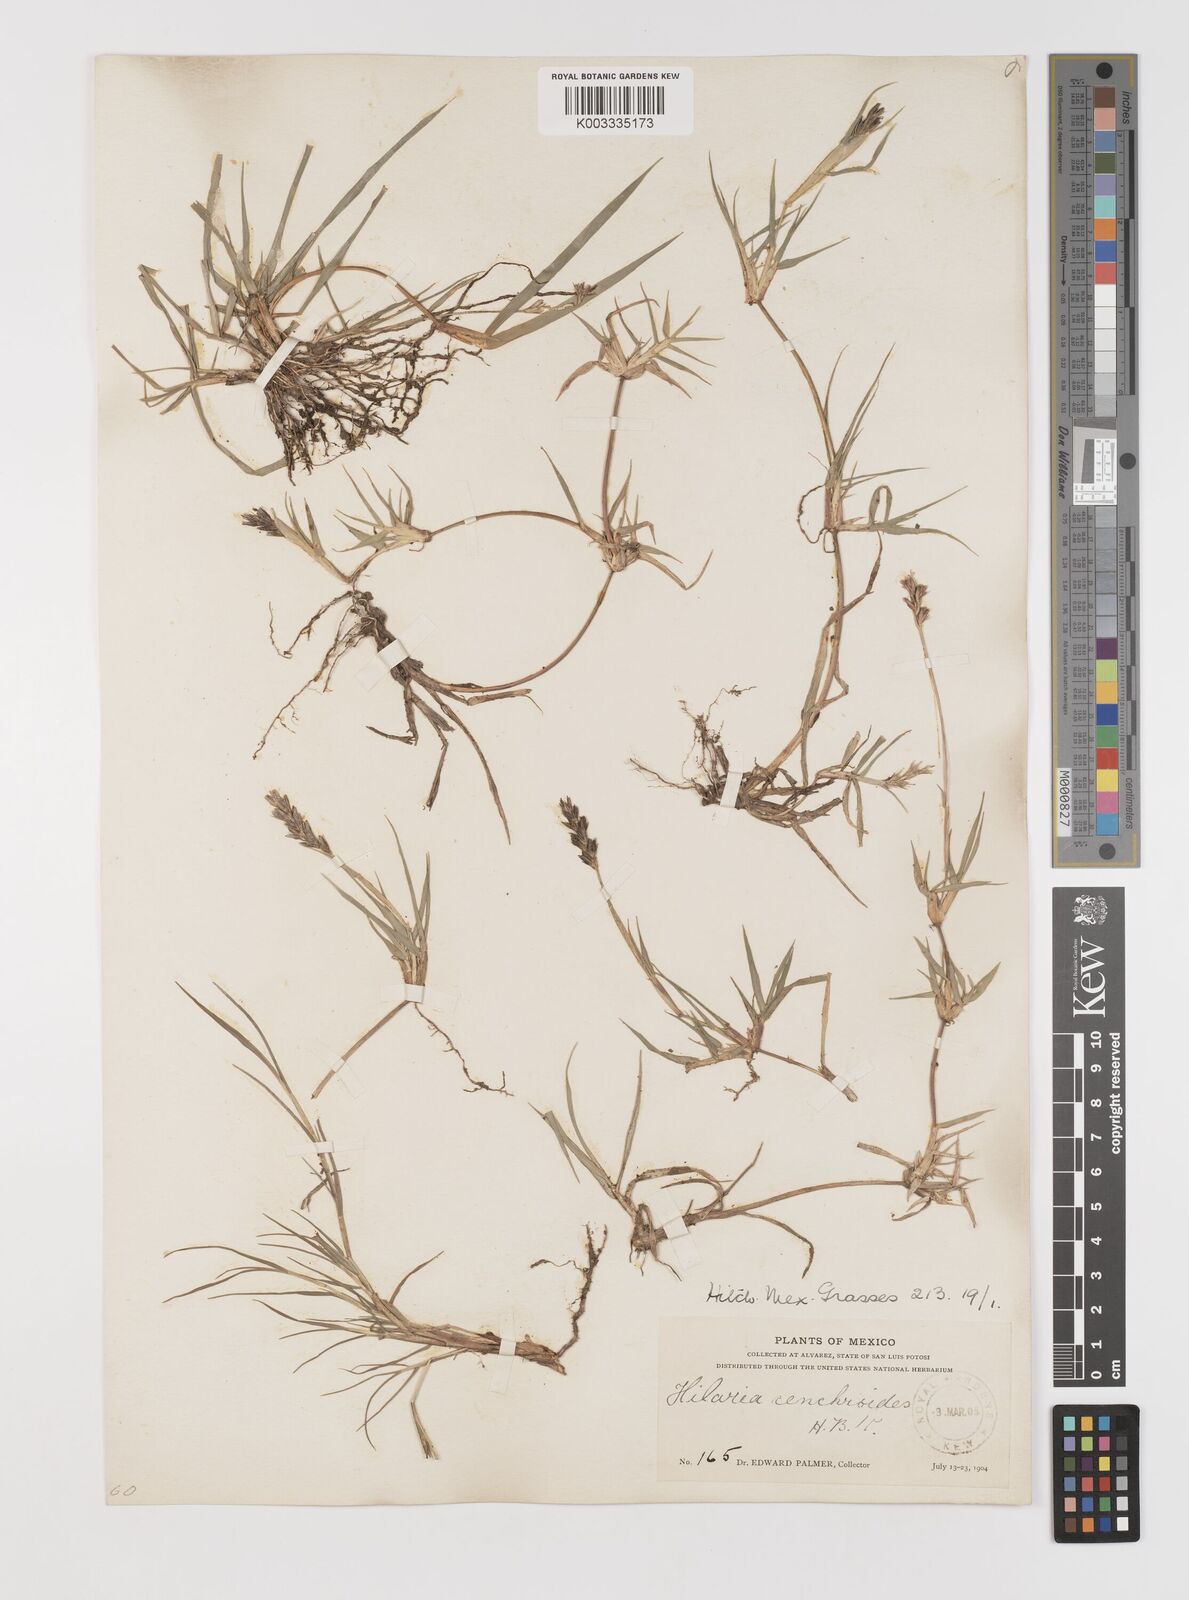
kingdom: Plantae
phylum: Tracheophyta
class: Liliopsida
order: Poales
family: Poaceae
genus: Hilaria
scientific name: Hilaria cenchroides
